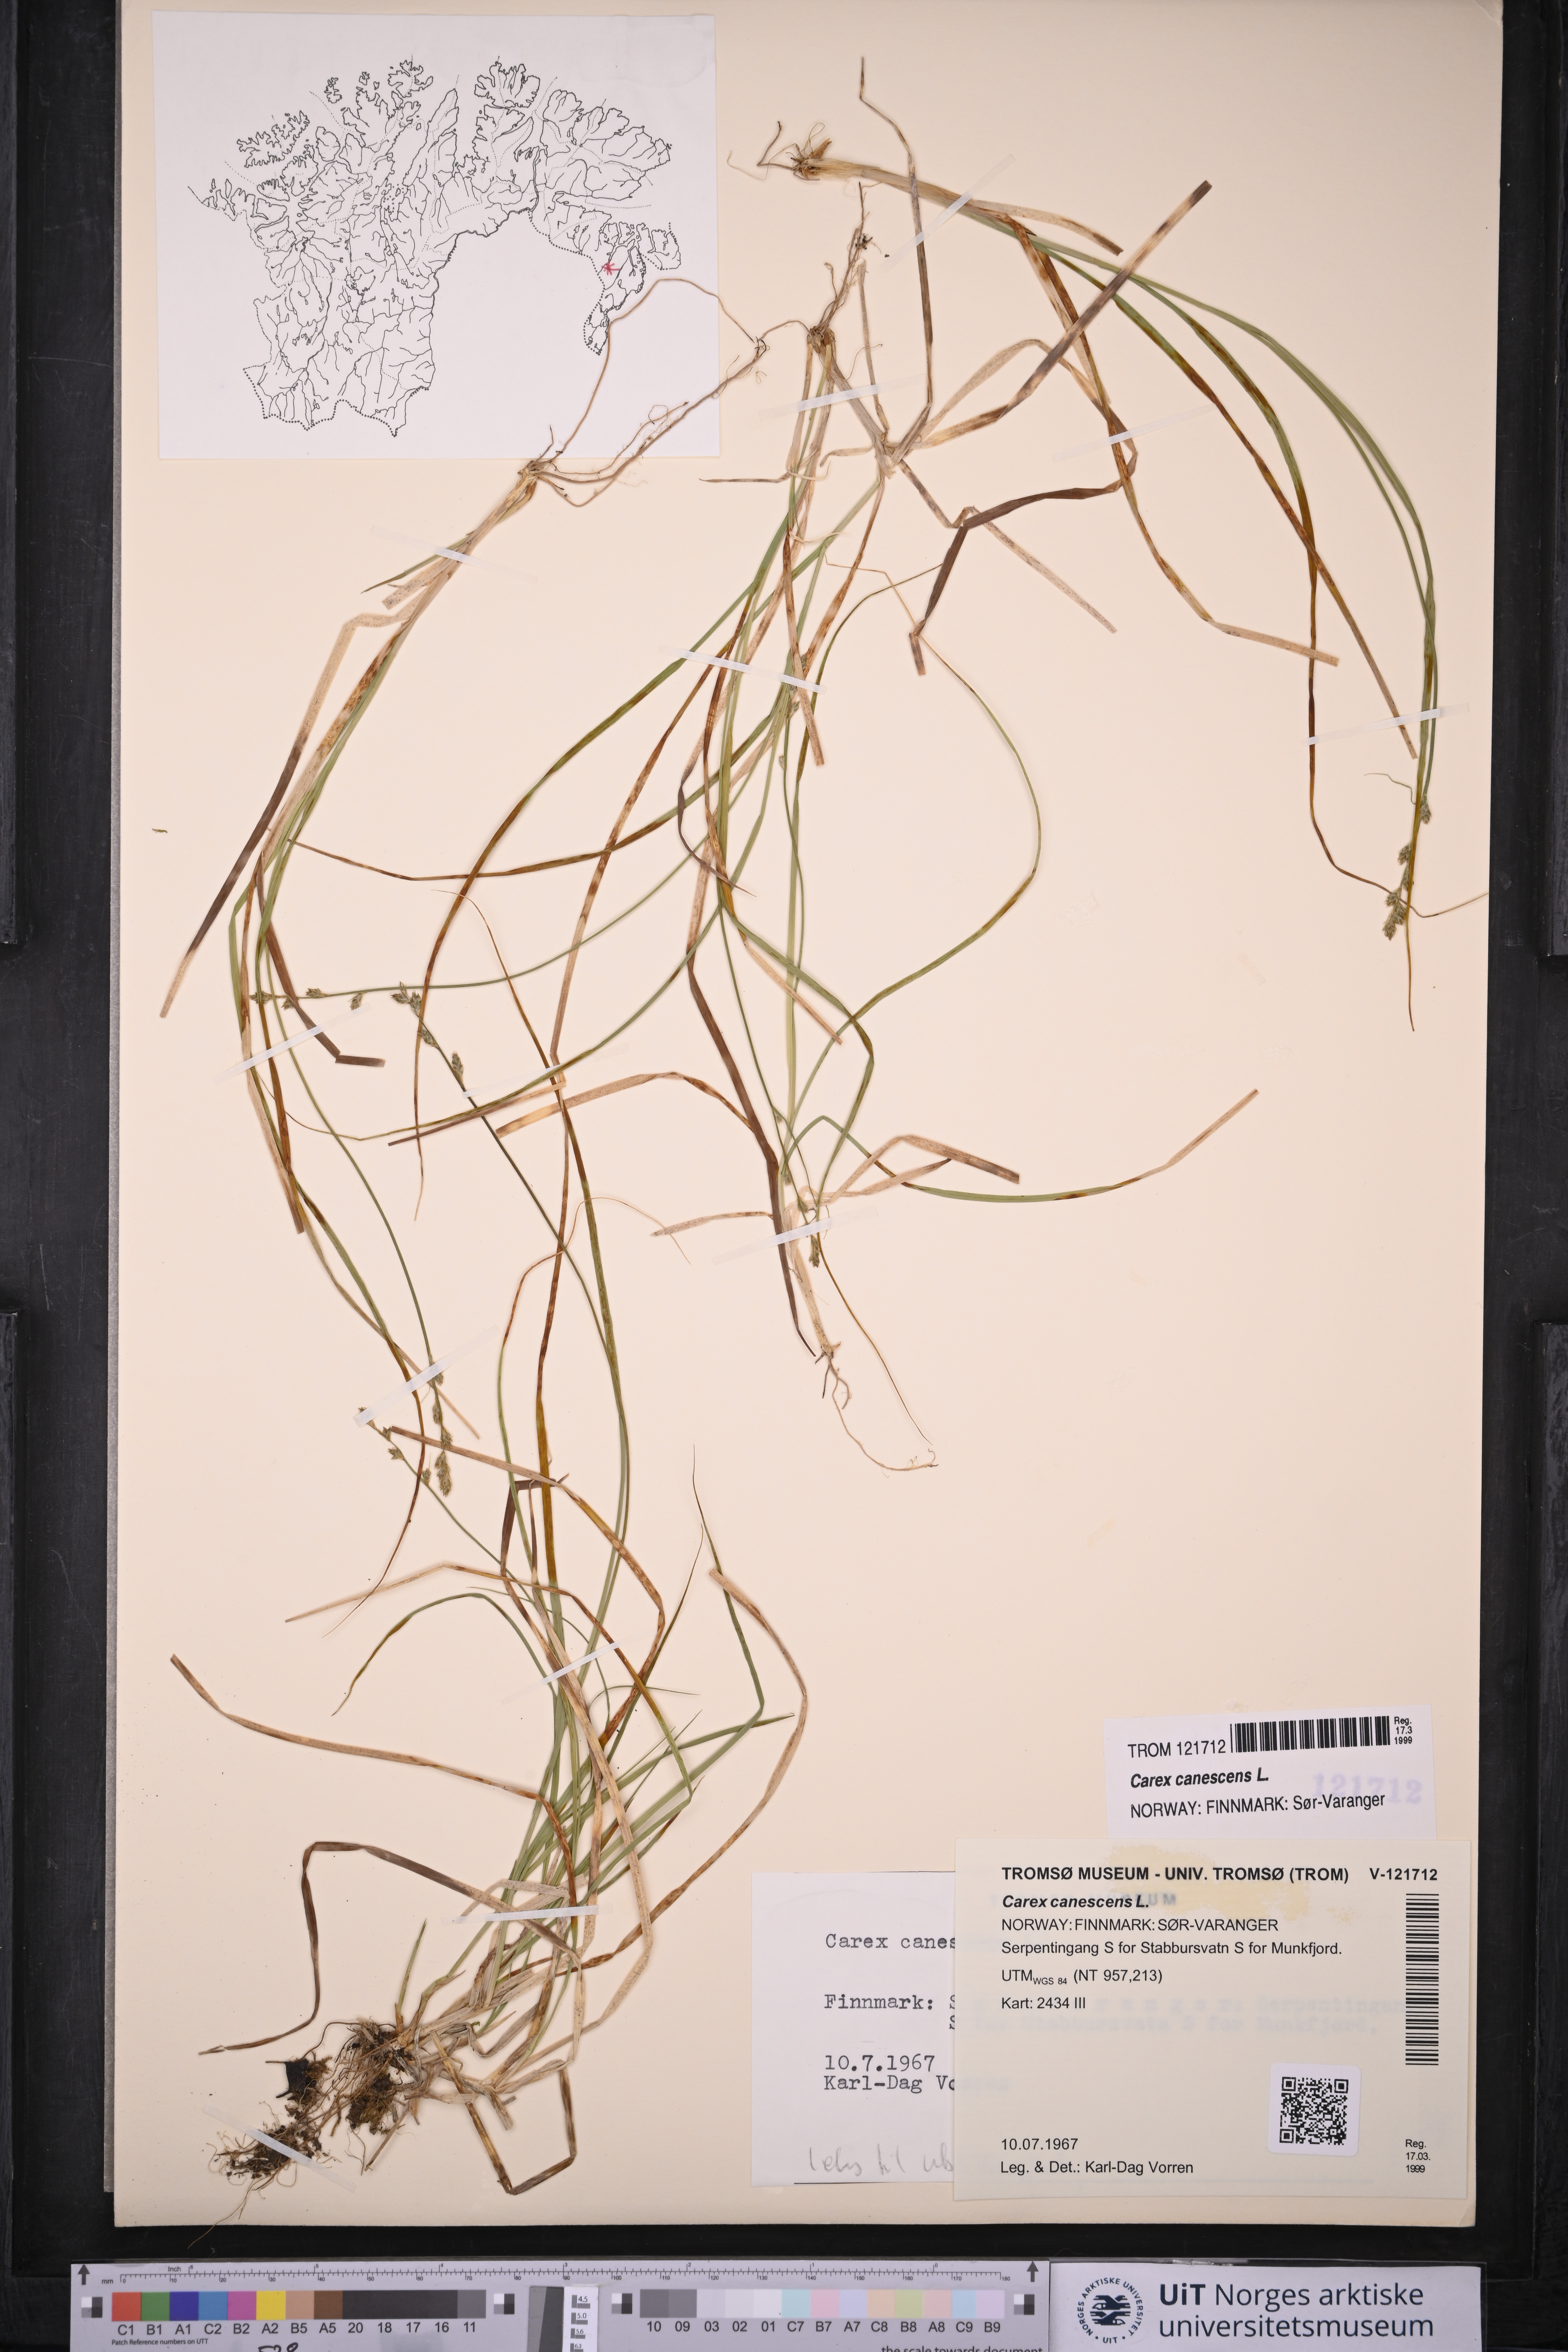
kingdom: Plantae
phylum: Tracheophyta
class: Liliopsida
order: Poales
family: Cyperaceae
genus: Carex
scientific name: Carex canescens
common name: White sedge
